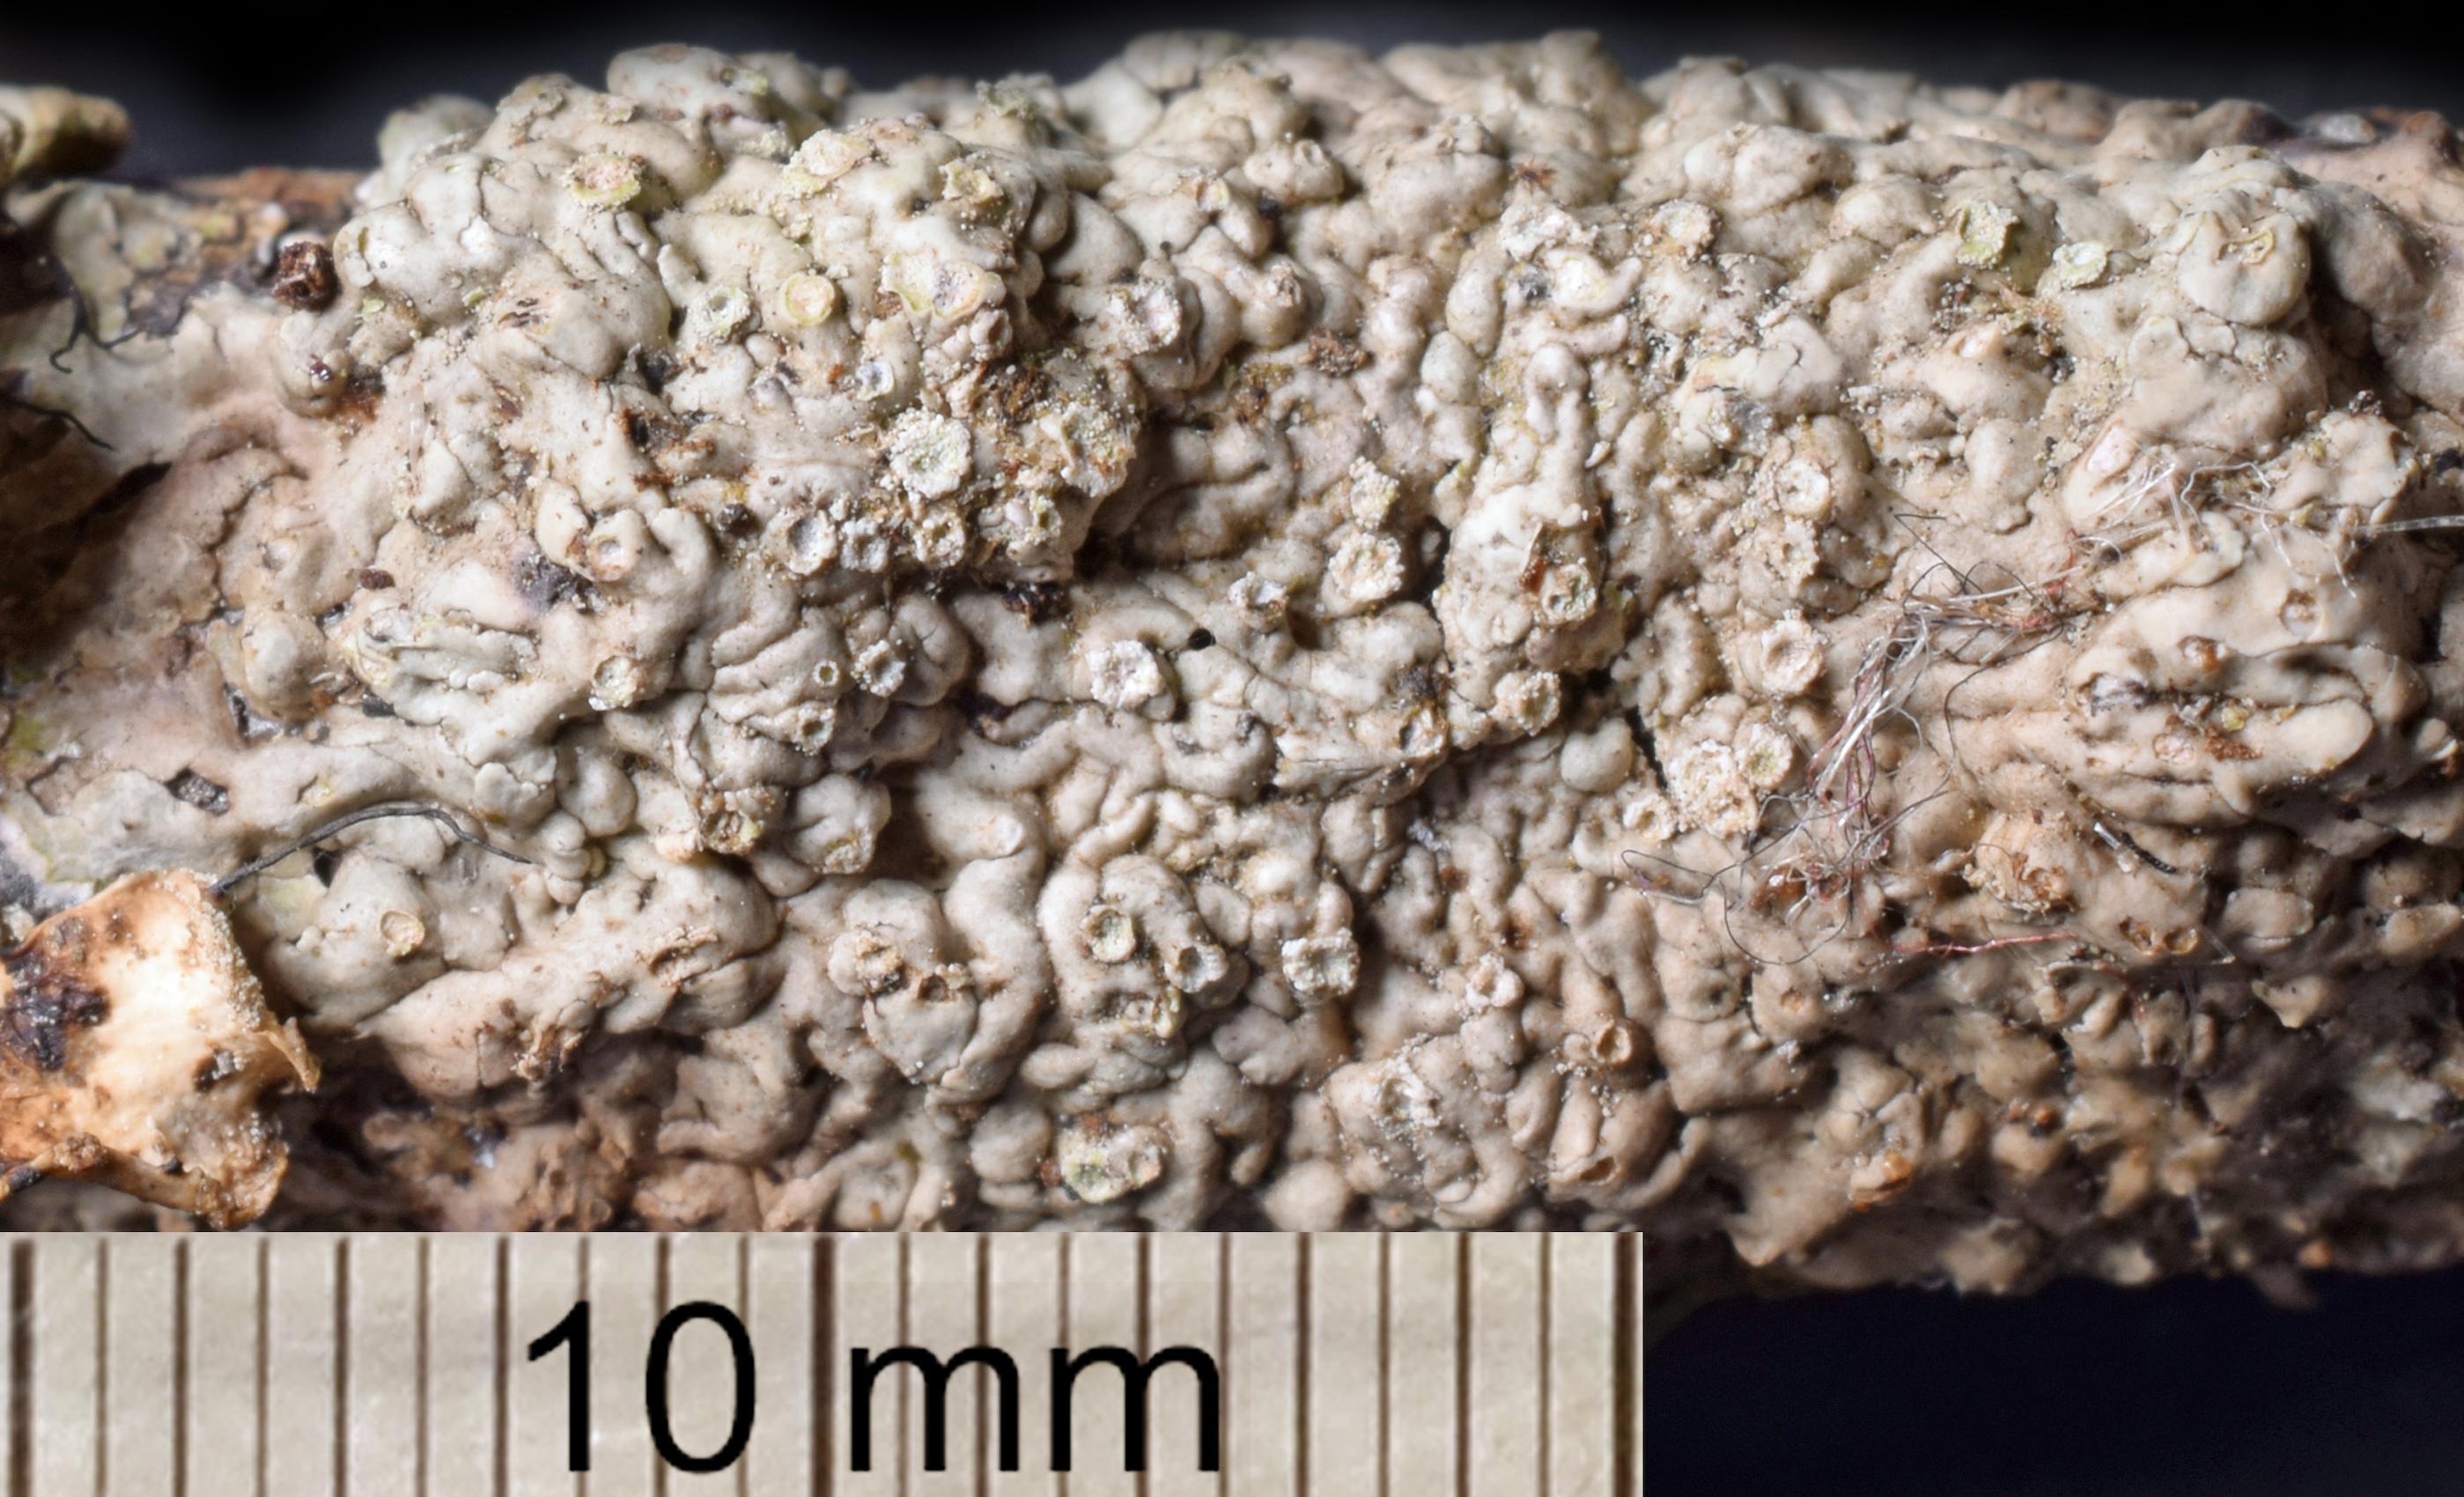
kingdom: Fungi
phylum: Ascomycota
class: Lecanoromycetes
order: Caliciales
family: Caliciaceae
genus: Pyxine
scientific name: Pyxine
